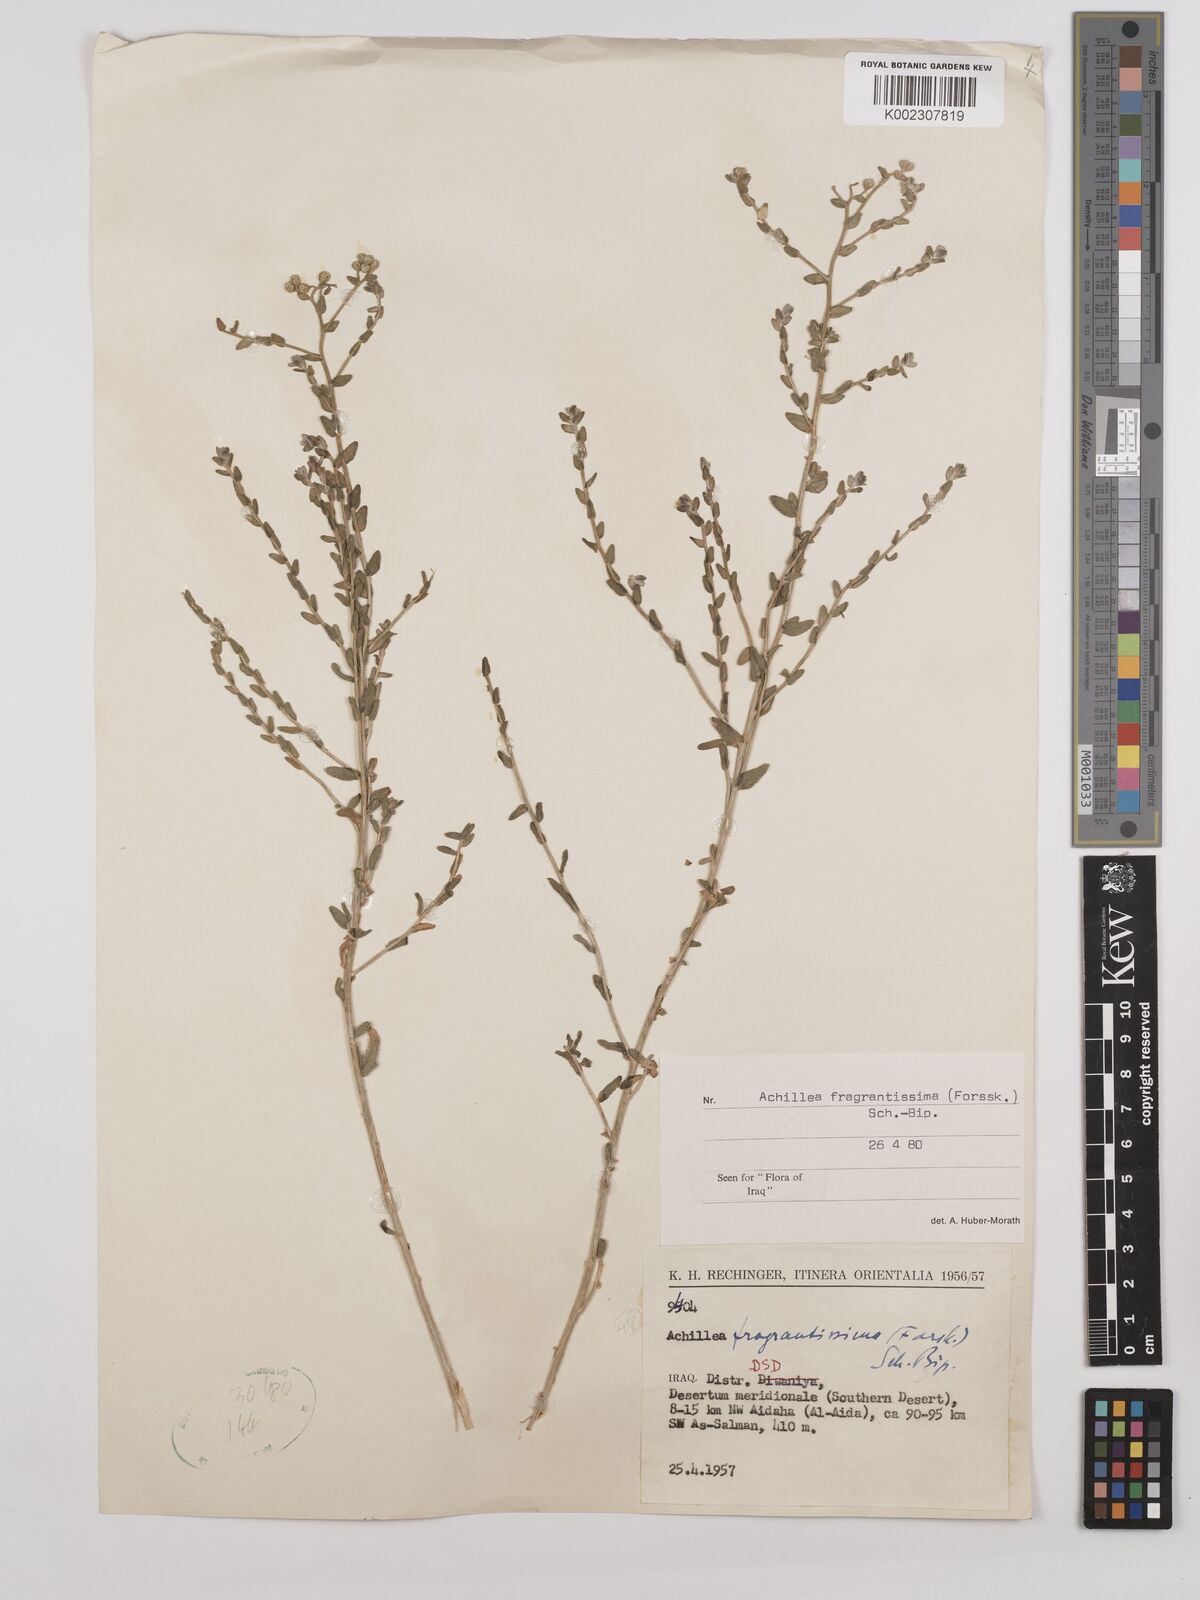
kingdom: Plantae
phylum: Tracheophyta
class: Magnoliopsida
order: Asterales
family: Asteraceae
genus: Achillea
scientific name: Achillea fragrantissima
